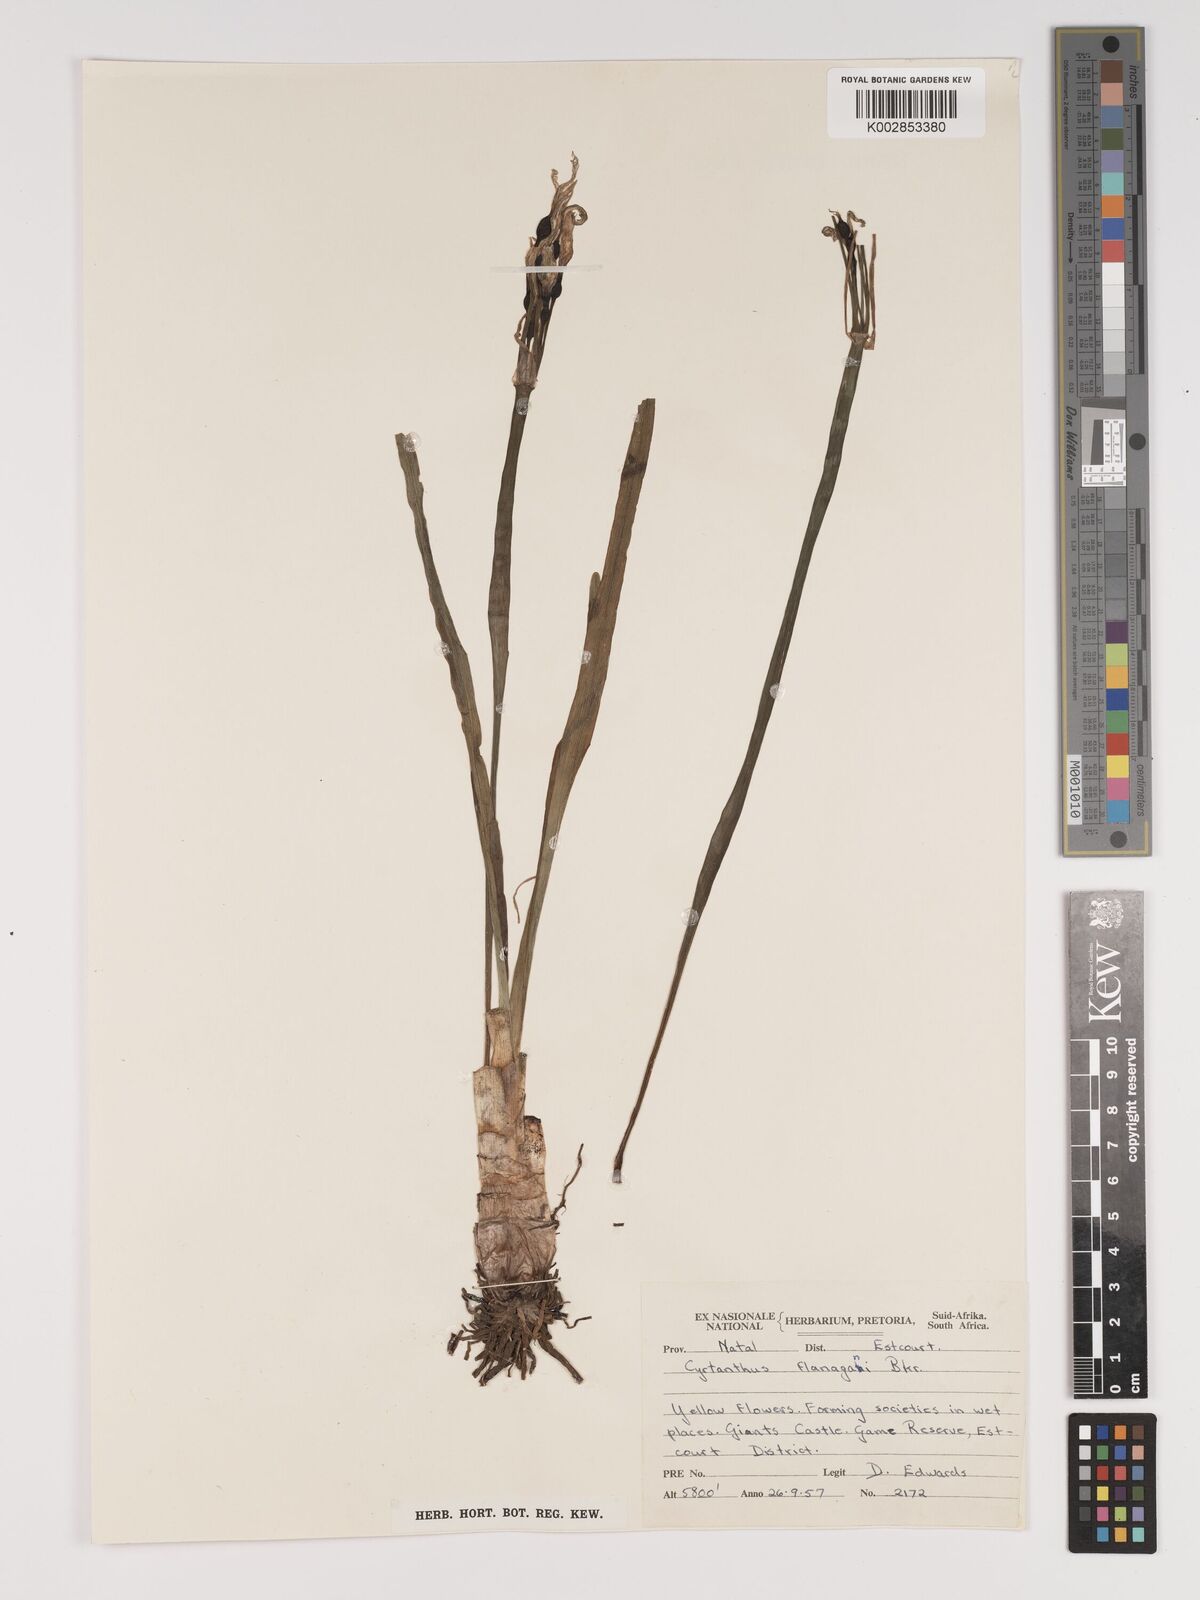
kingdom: Plantae
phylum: Tracheophyta
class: Liliopsida
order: Asparagales
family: Amaryllidaceae
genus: Cyrtanthus
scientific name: Cyrtanthus flanaganii
